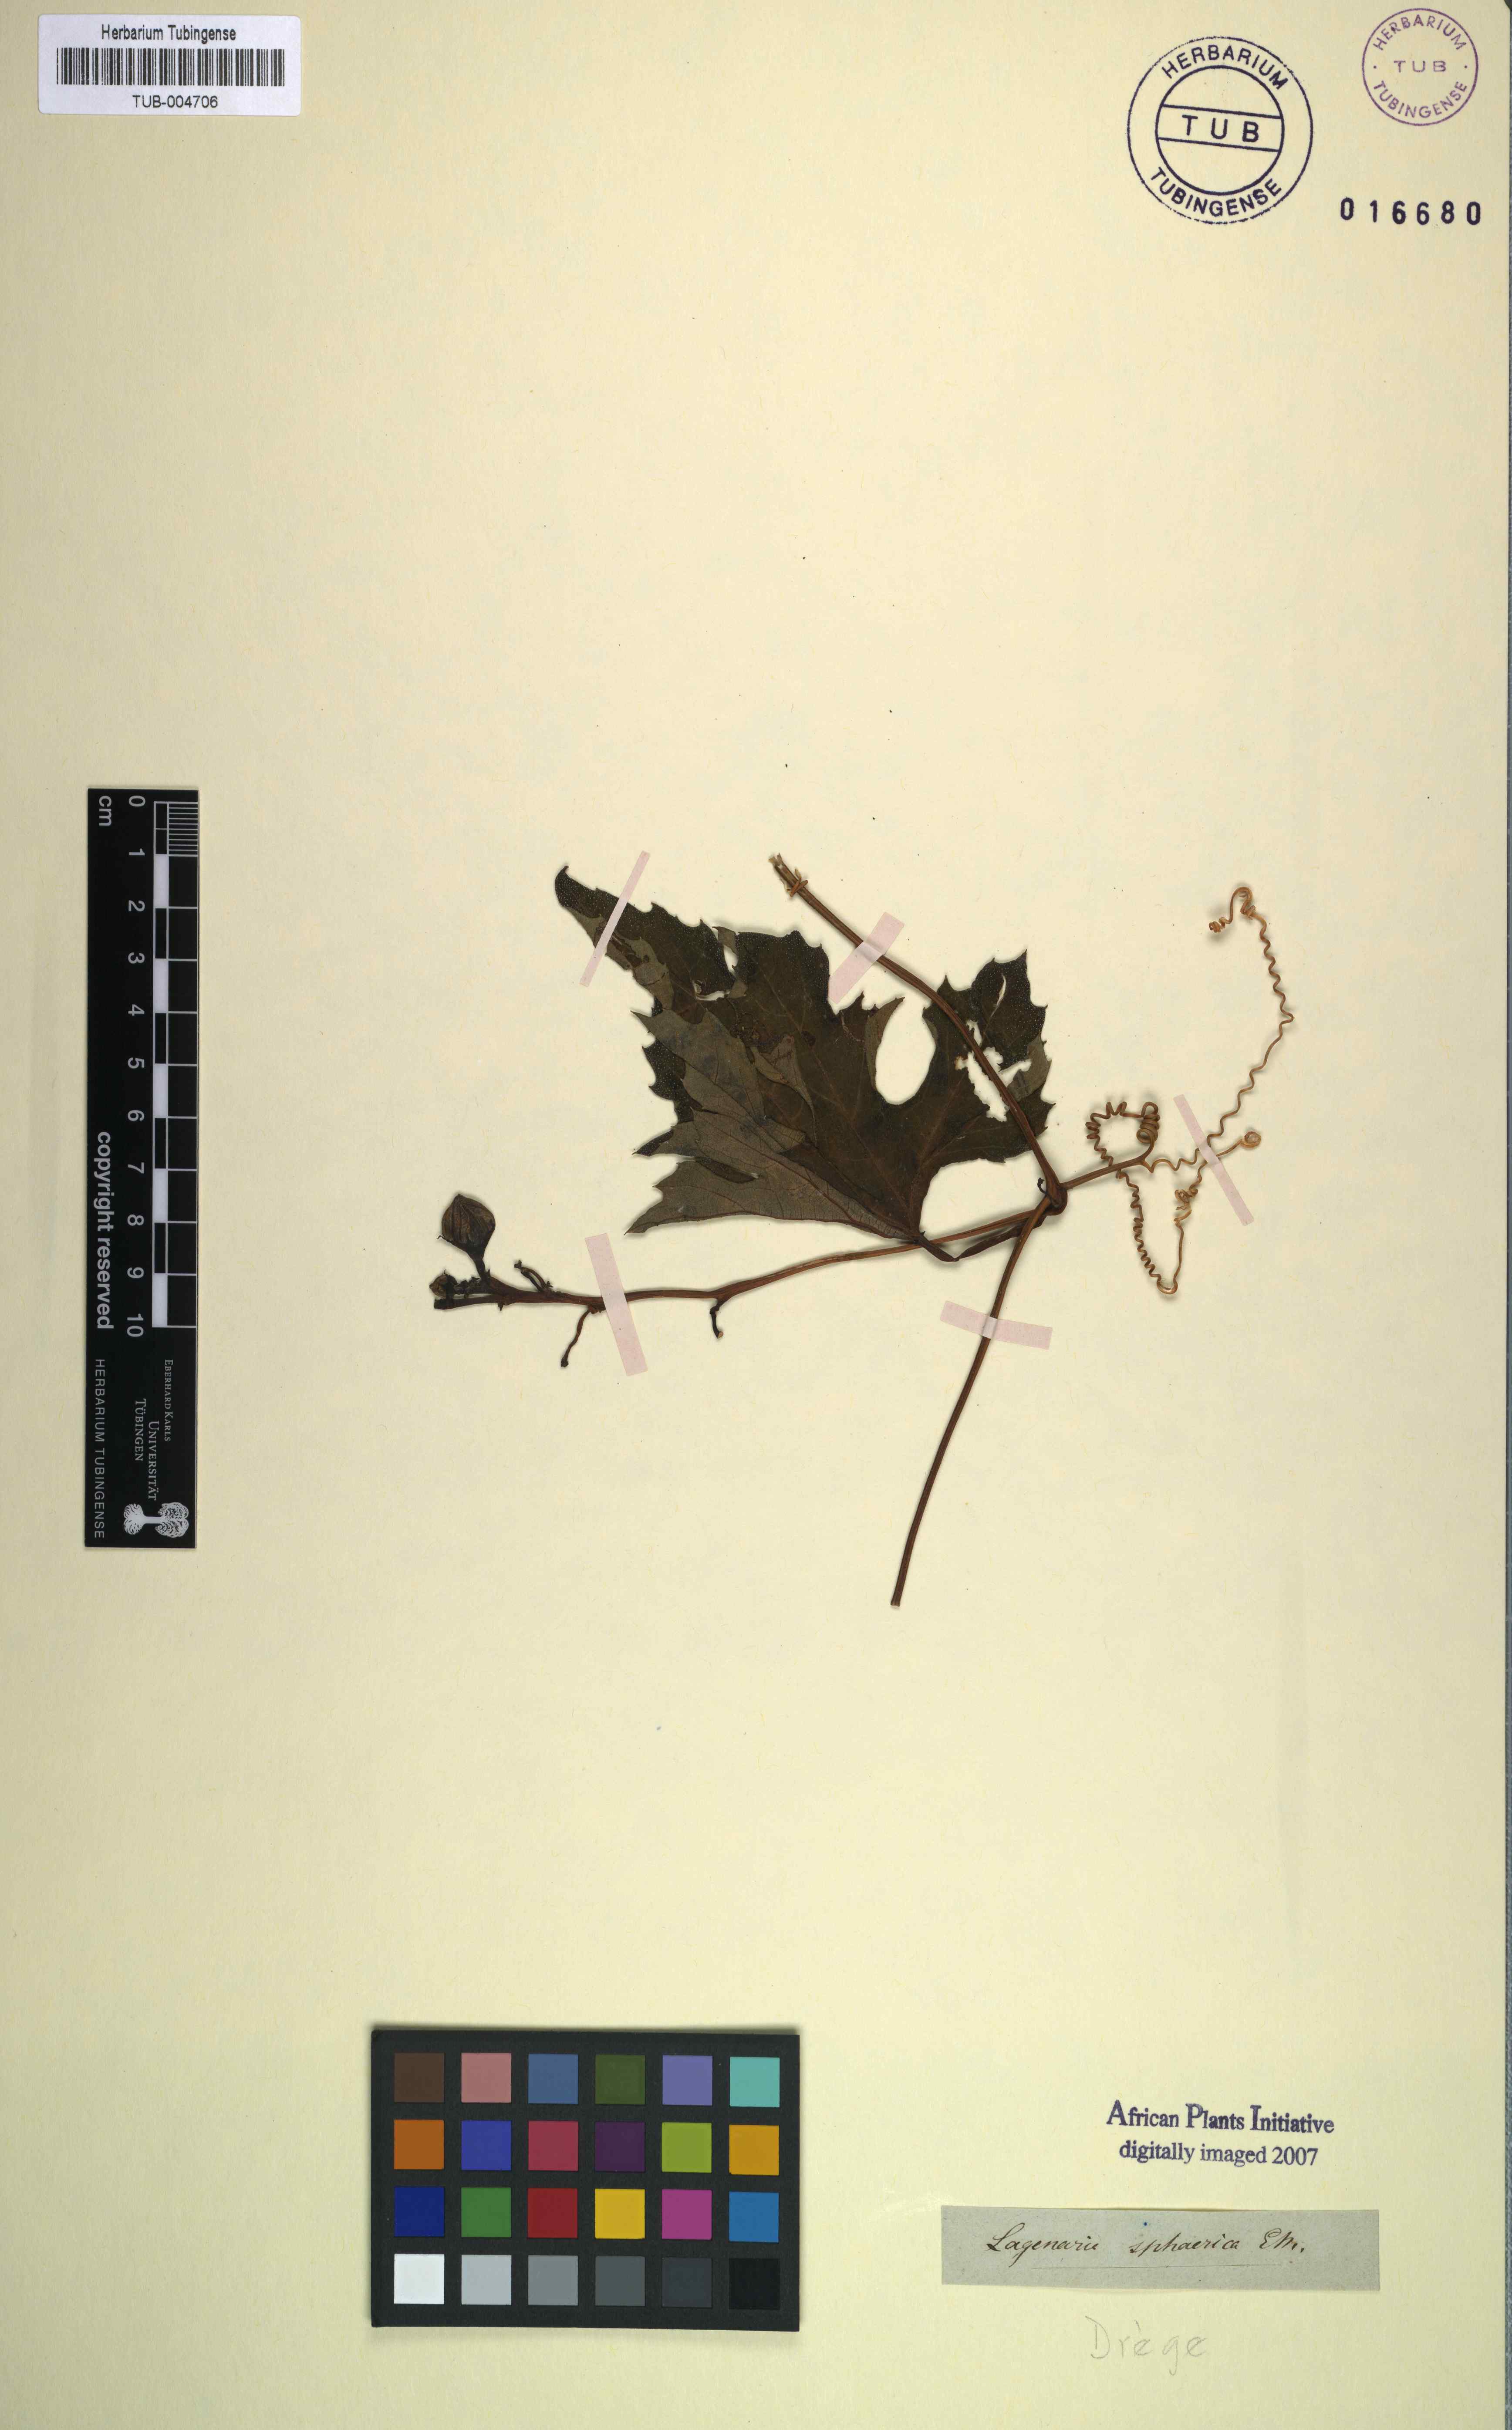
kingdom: Plantae
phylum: Tracheophyta
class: Magnoliopsida
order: Cucurbitales
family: Cucurbitaceae
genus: Lagenaria
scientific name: Lagenaria sphaerica
